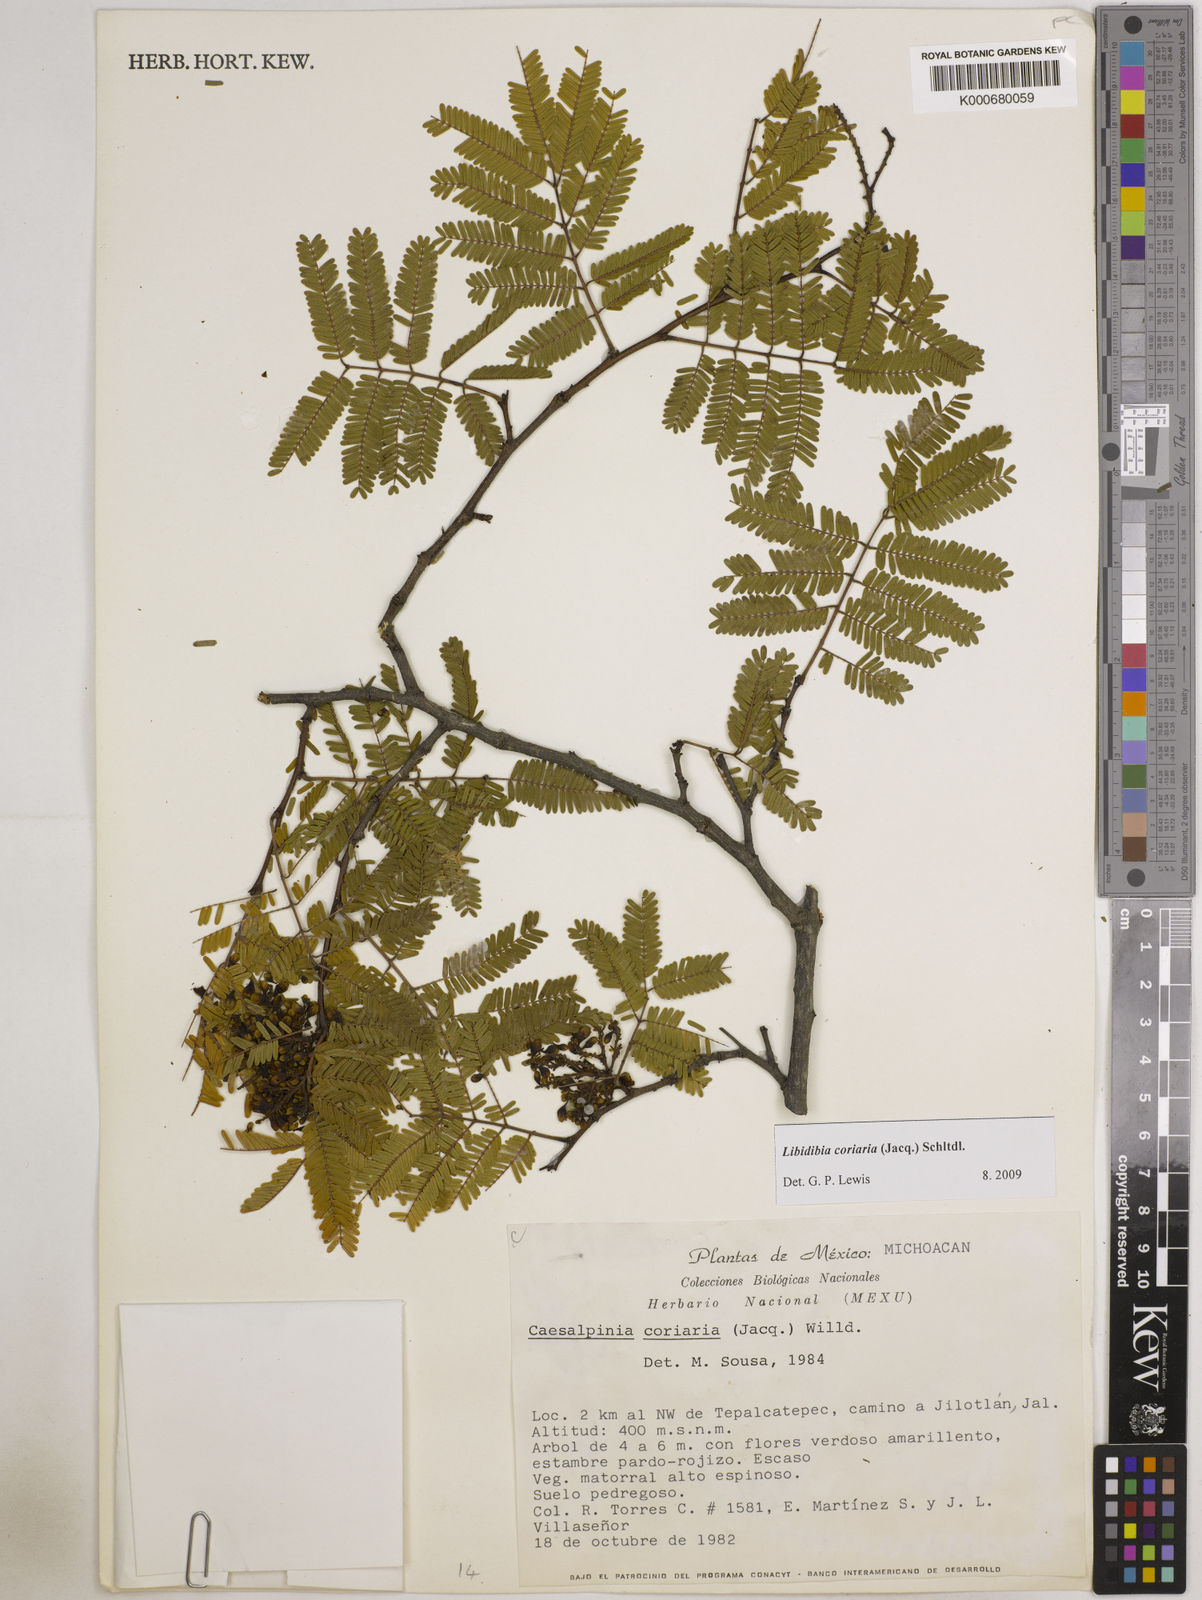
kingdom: Plantae
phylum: Tracheophyta
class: Magnoliopsida
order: Fabales
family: Fabaceae
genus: Libidibia
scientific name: Libidibia coriaria
